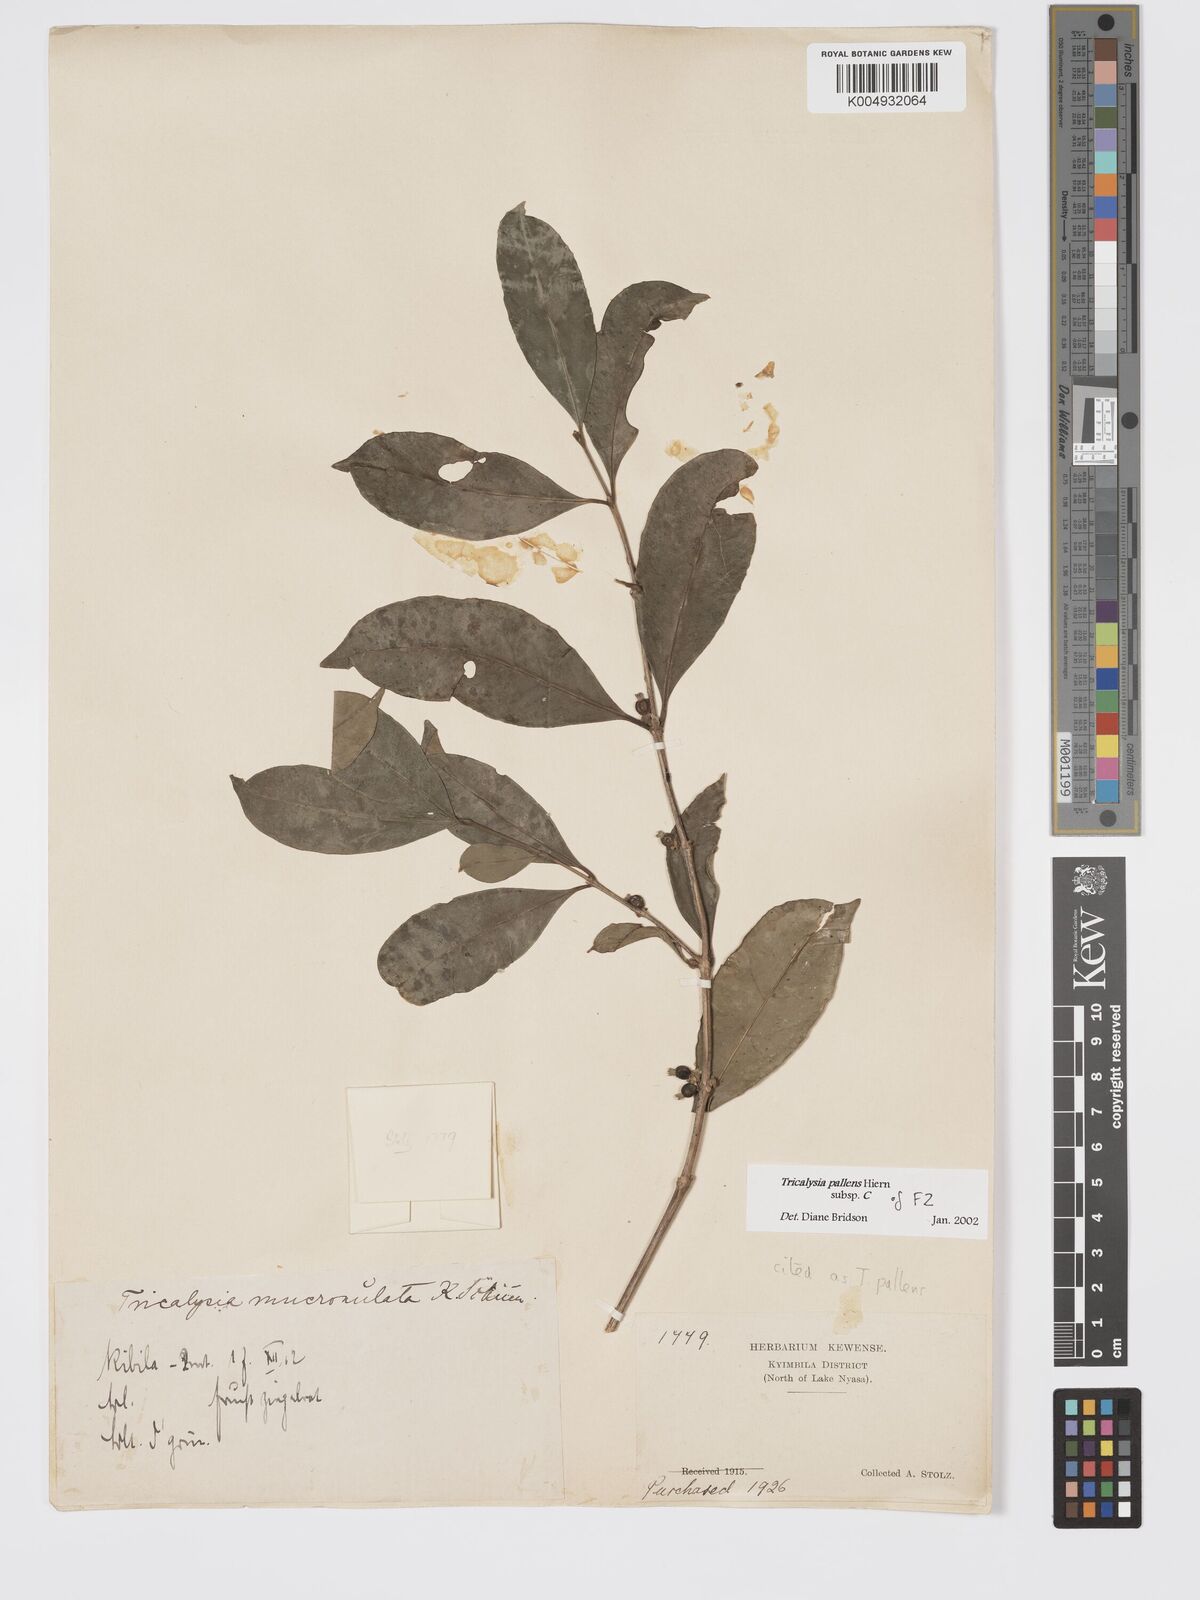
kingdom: Plantae
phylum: Tracheophyta
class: Magnoliopsida
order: Gentianales
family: Rubiaceae
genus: Tricalysia
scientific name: Tricalysia pallens
